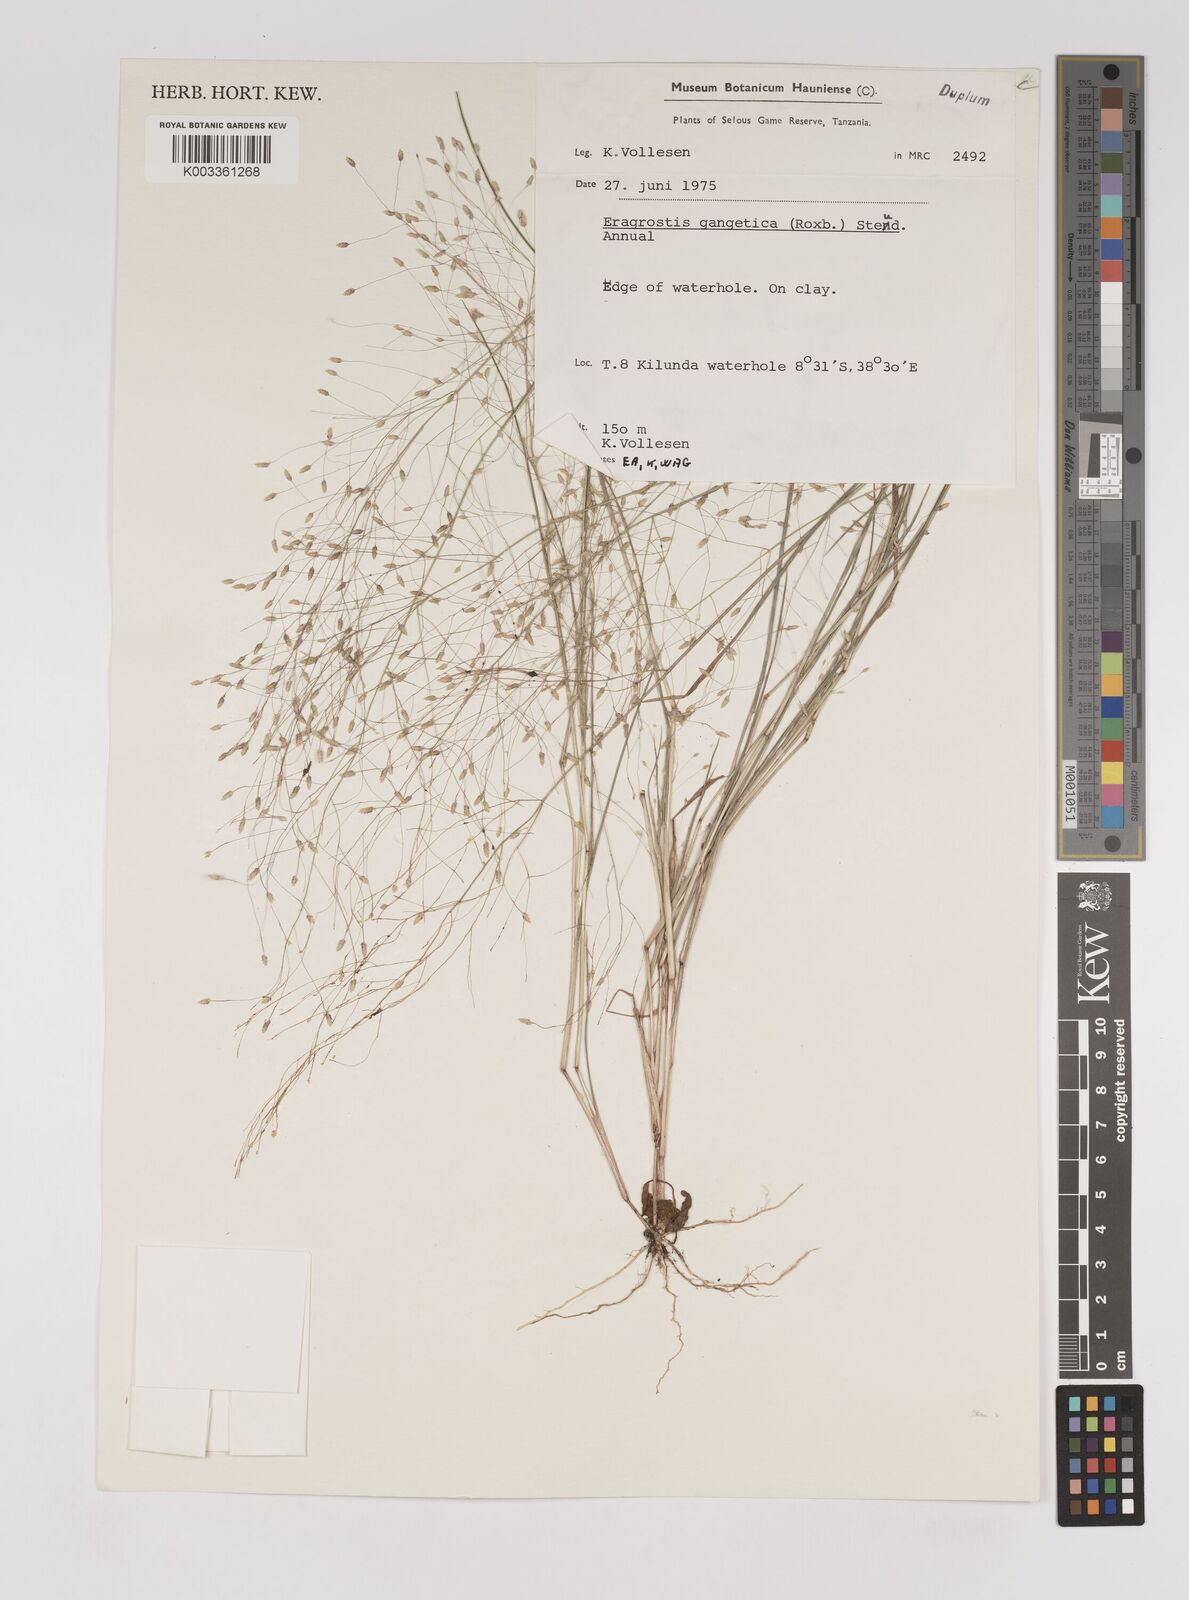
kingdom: Plantae
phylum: Tracheophyta
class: Liliopsida
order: Poales
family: Poaceae
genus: Eragrostis
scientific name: Eragrostis gangetica
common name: Slimflower lovegrass
